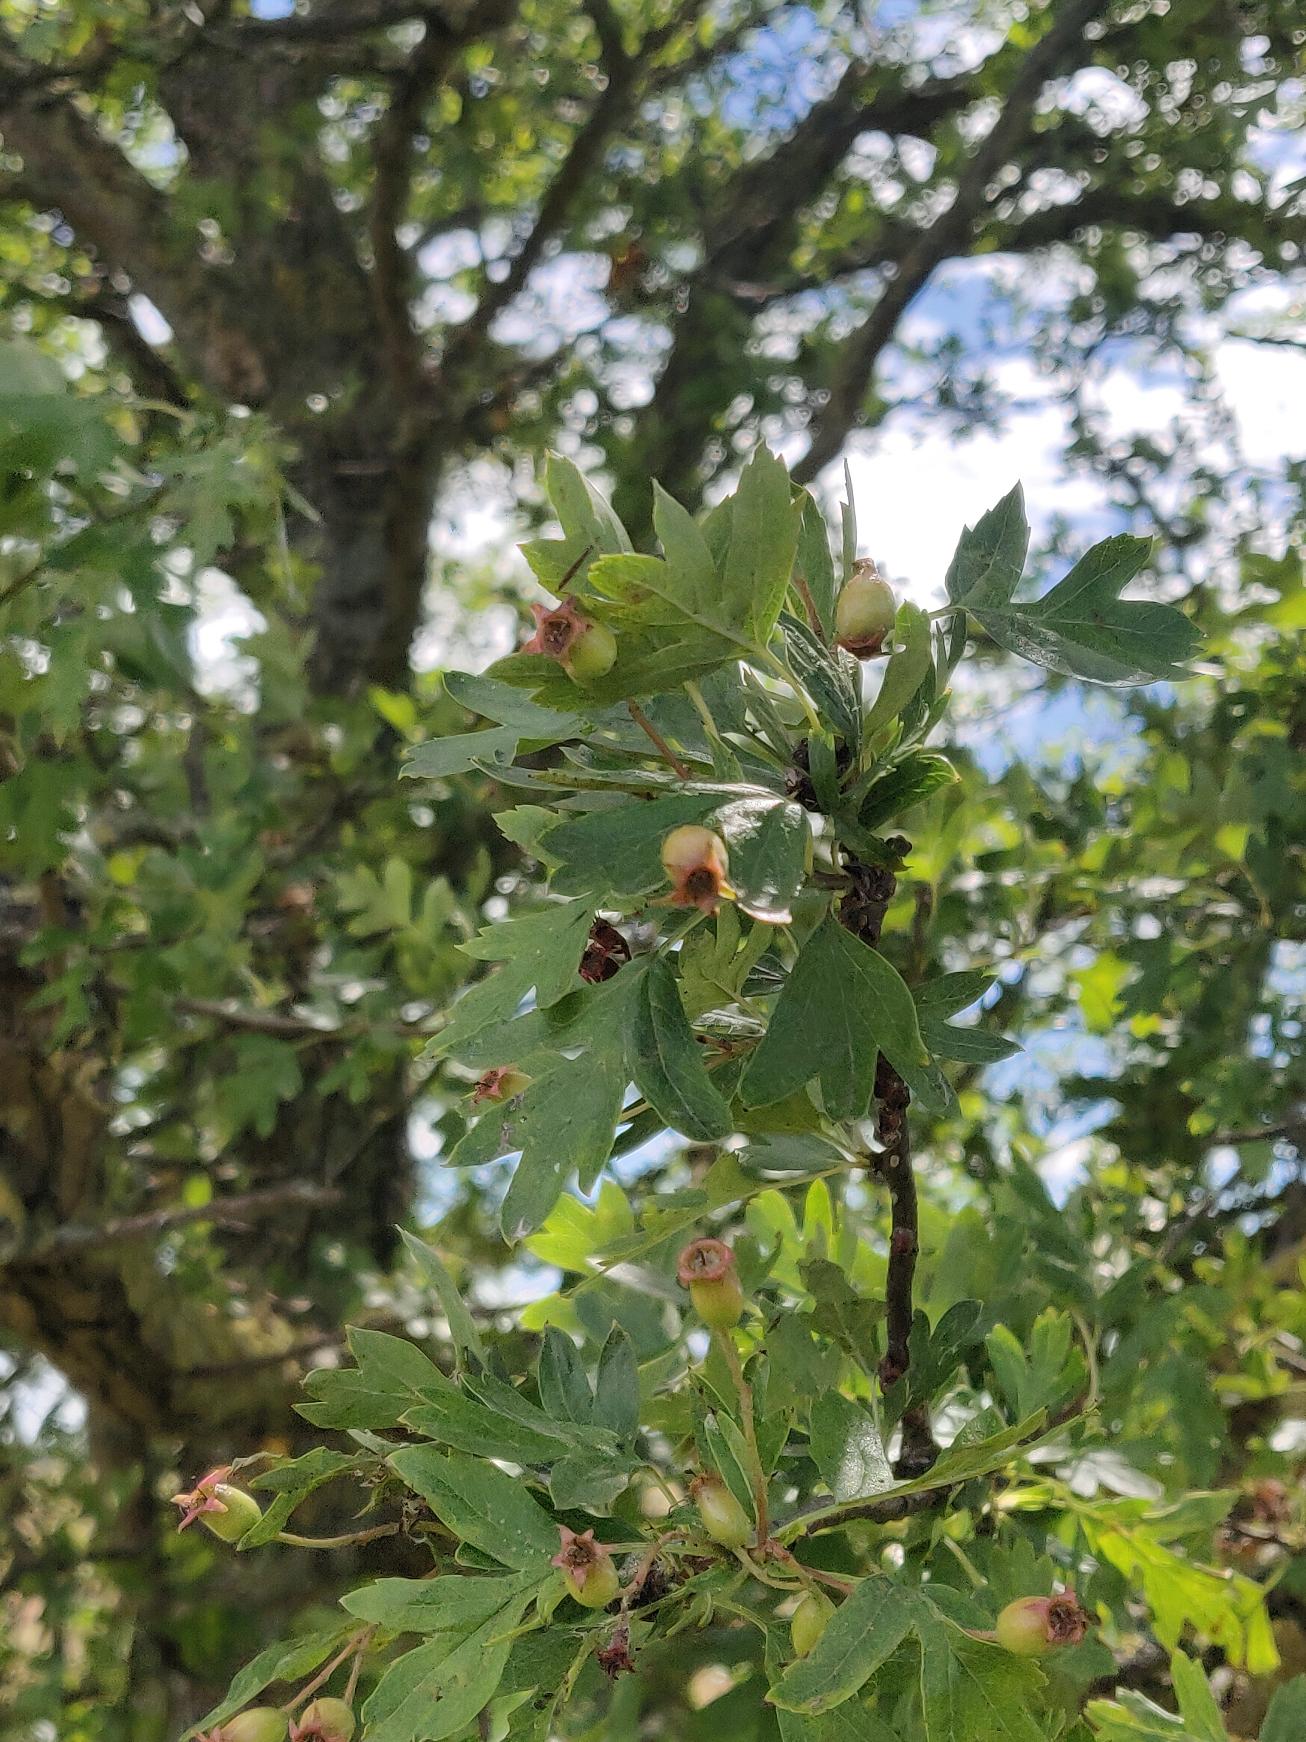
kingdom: Plantae
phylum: Tracheophyta
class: Magnoliopsida
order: Rosales
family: Rosaceae
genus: Crataegus
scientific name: Crataegus monogyna
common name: Engriflet hvidtjørn
